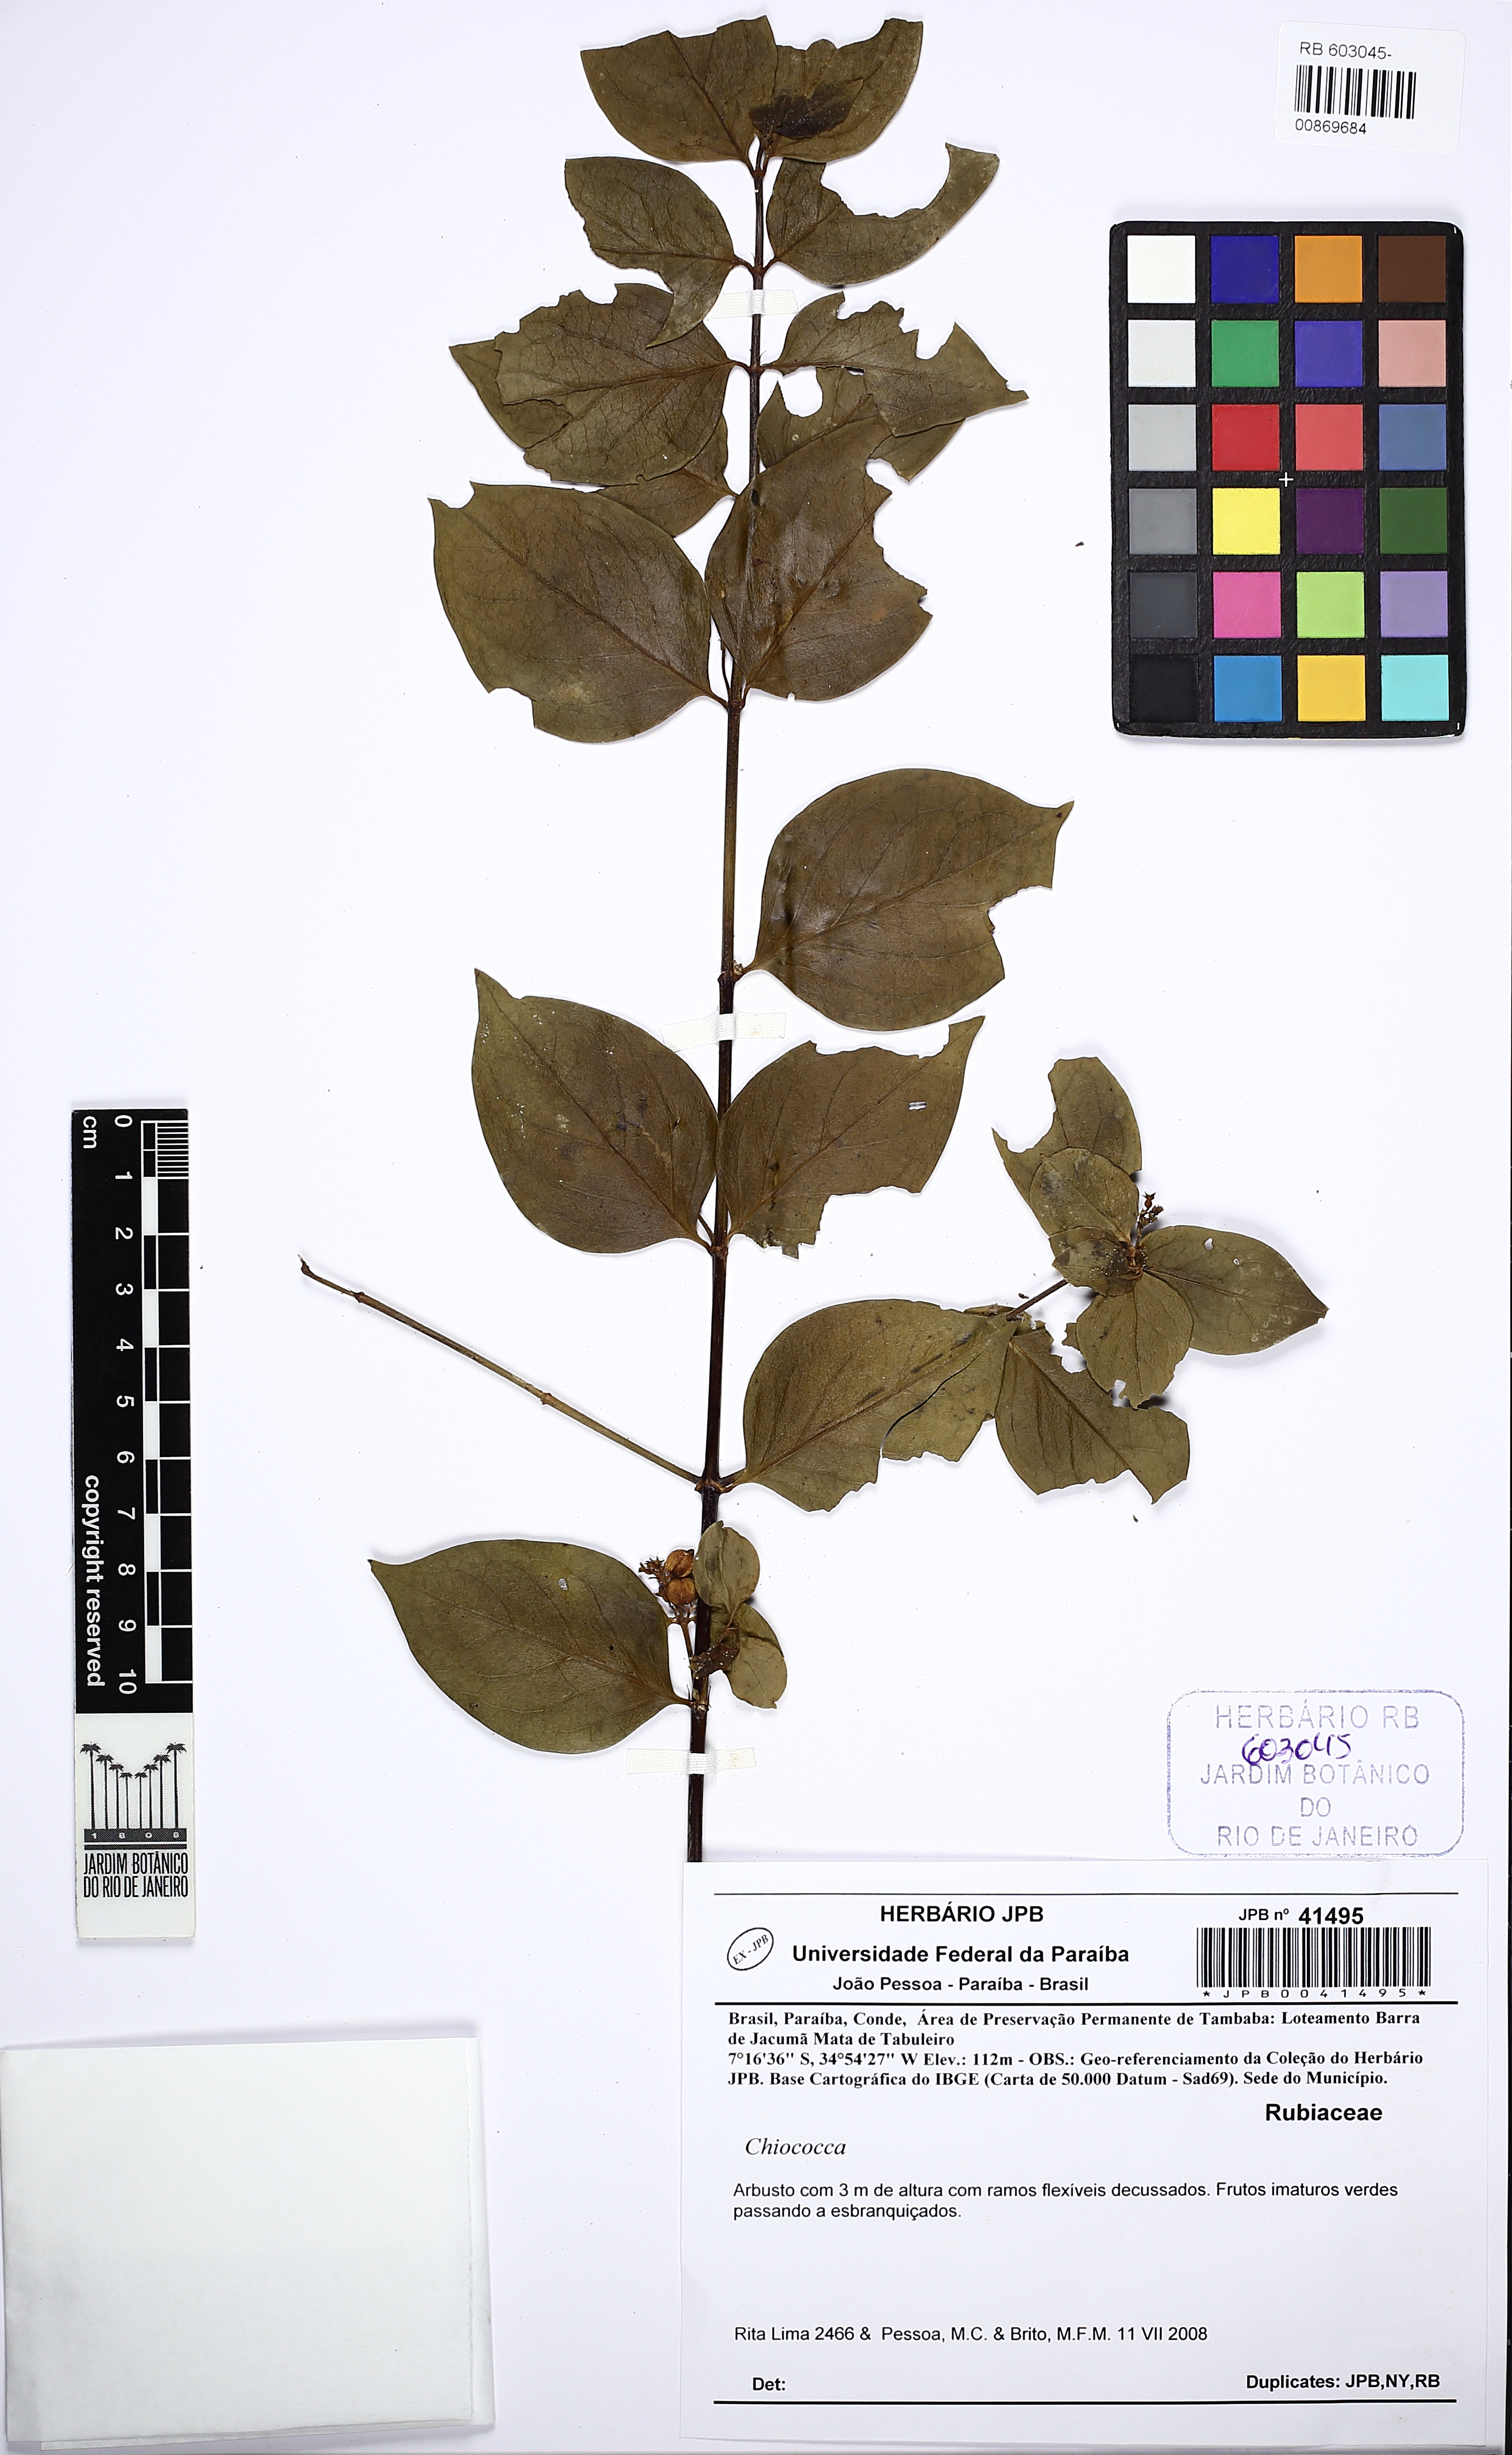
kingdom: Plantae
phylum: Tracheophyta
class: Magnoliopsida
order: Gentianales
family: Rubiaceae
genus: Chiococca
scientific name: Chiococca alba
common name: Snowberry
